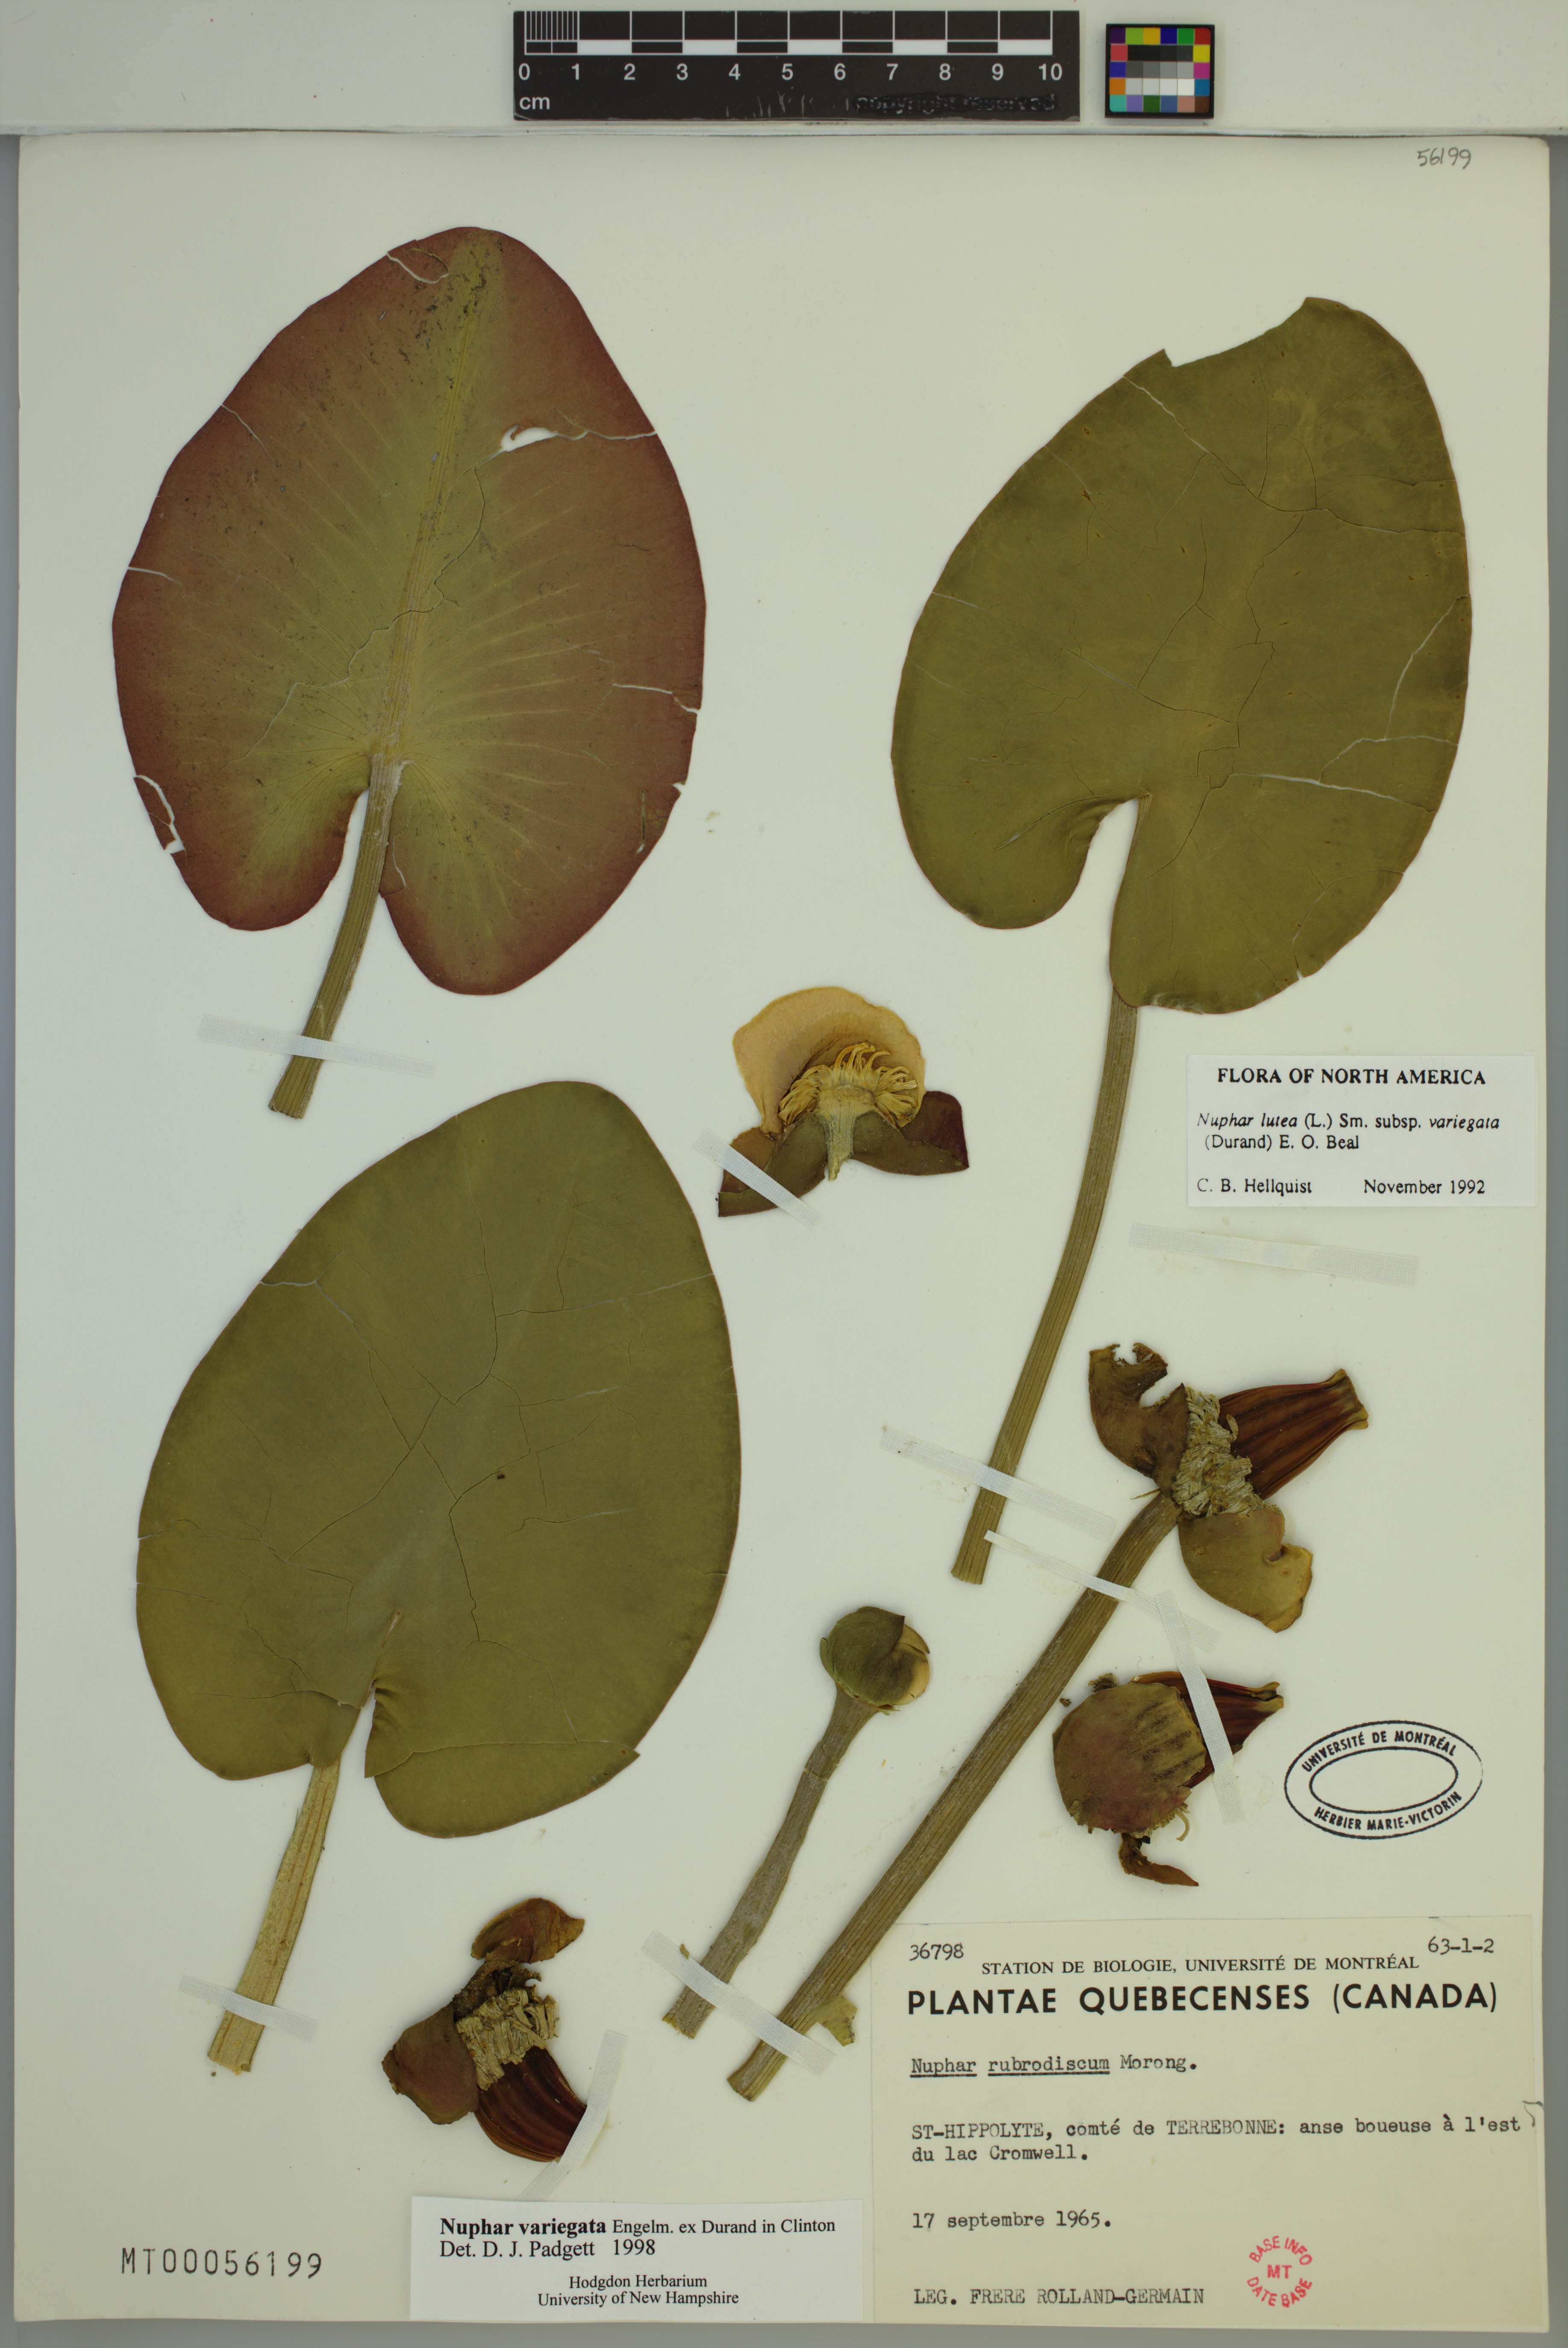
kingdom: Plantae
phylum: Tracheophyta
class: Magnoliopsida
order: Nymphaeales
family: Nymphaeaceae
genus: Nuphar
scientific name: Nuphar variegata
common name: Beaver-root
